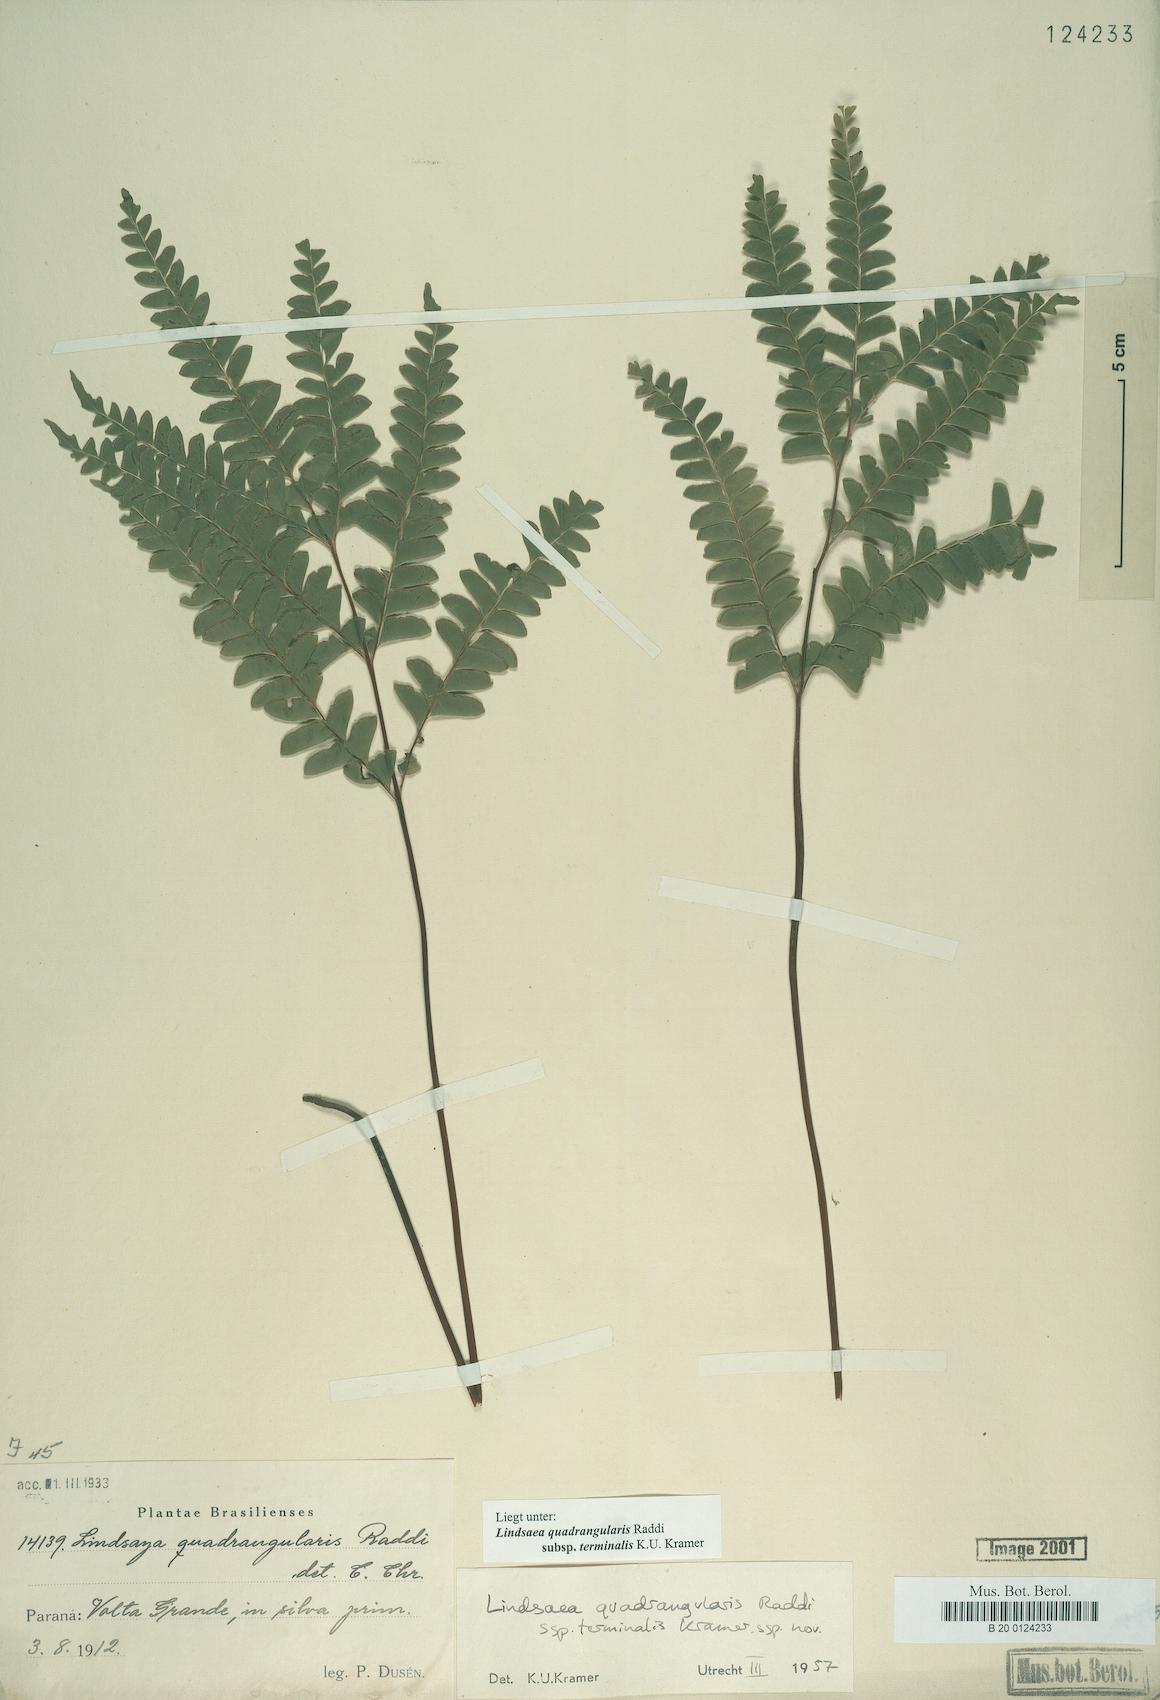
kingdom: Plantae
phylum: Tracheophyta
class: Polypodiopsida
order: Polypodiales
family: Lindsaeaceae
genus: Lindsaea
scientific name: Lindsaea terminalis
